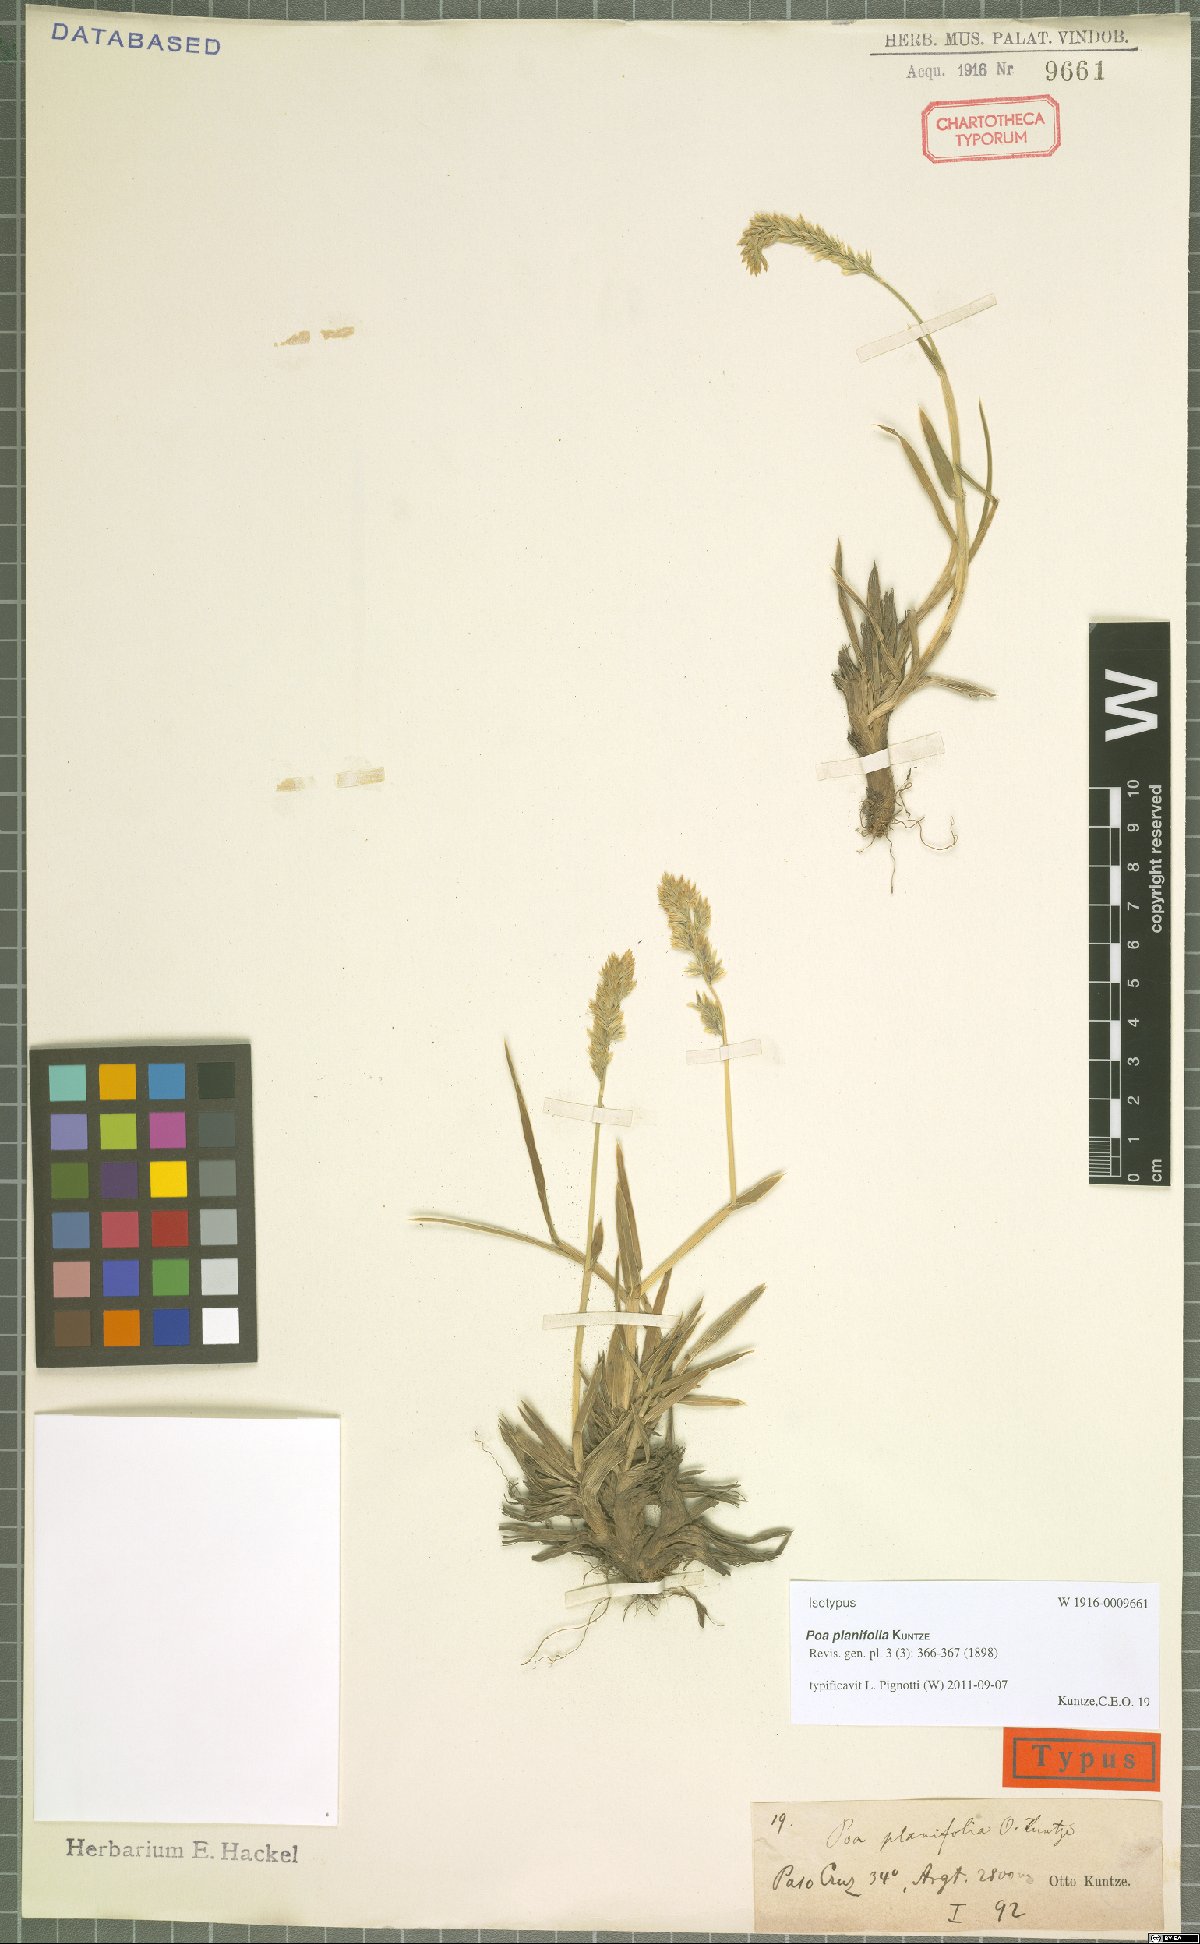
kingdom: Plantae
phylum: Tracheophyta
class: Liliopsida
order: Poales
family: Poaceae
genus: Poa
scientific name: Poa planifolia
